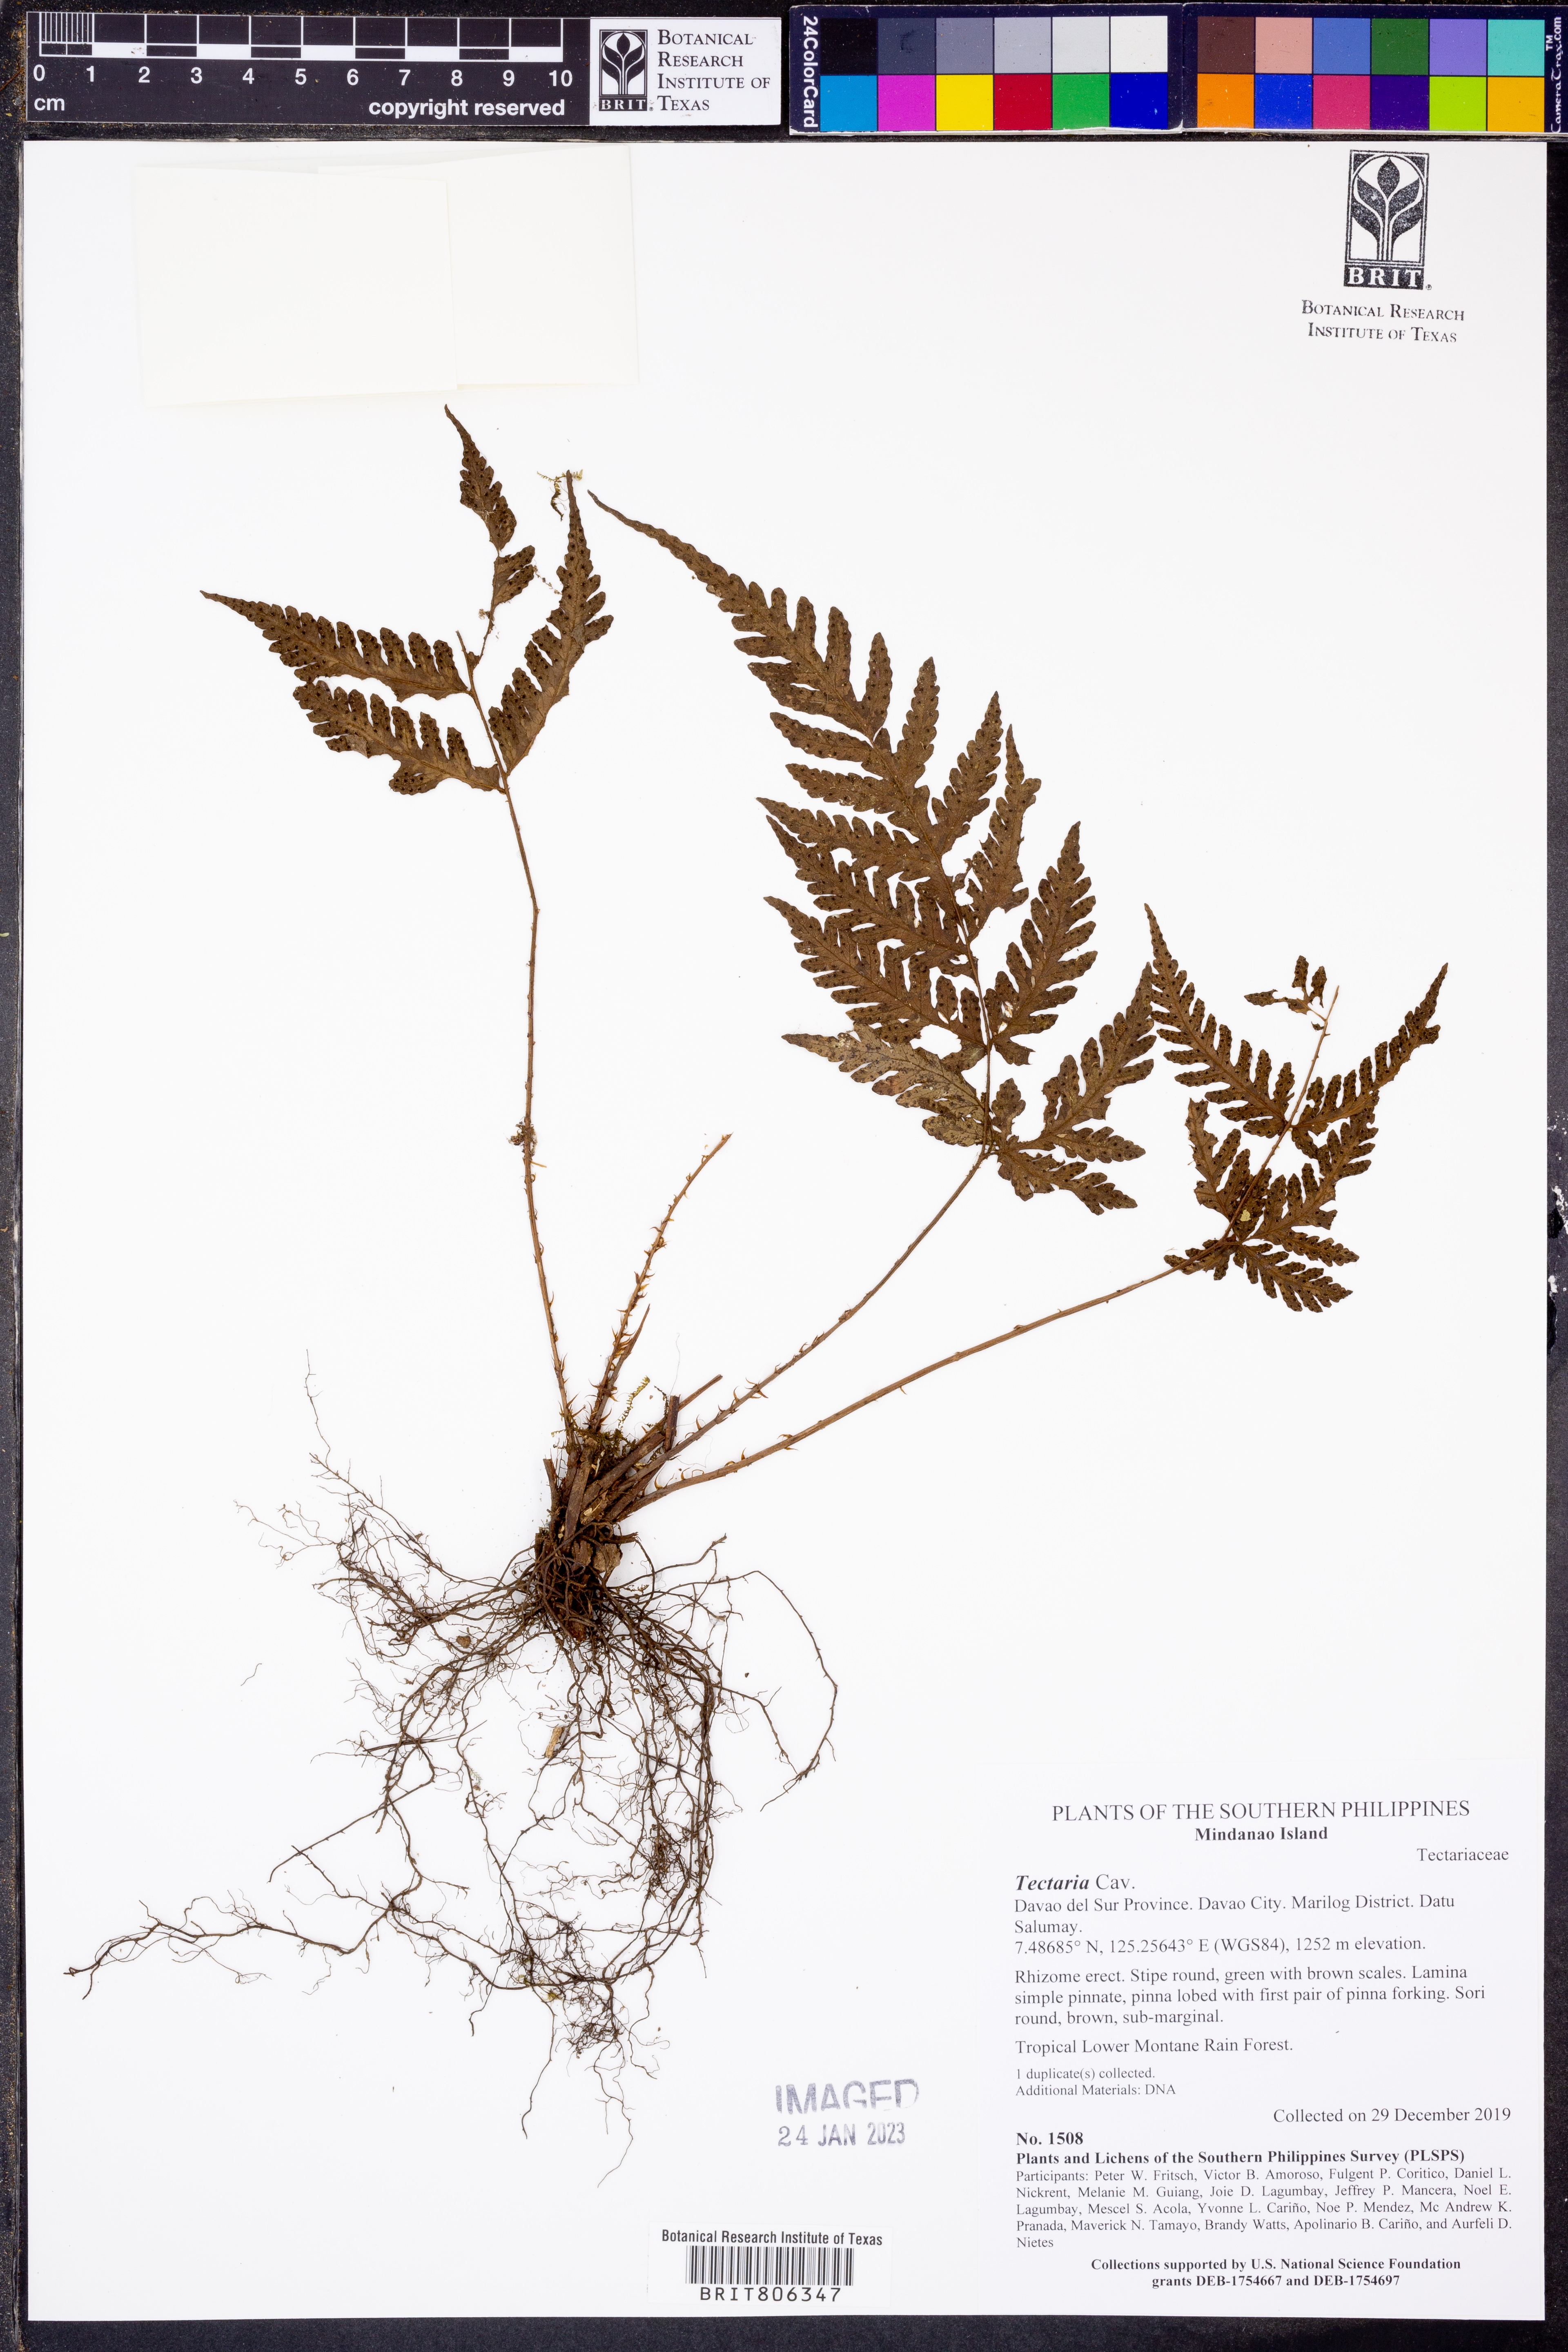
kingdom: Plantae
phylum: Tracheophyta
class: Polypodiopsida
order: Polypodiales
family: Tectariaceae
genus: Tectaria
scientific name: Tectaria
